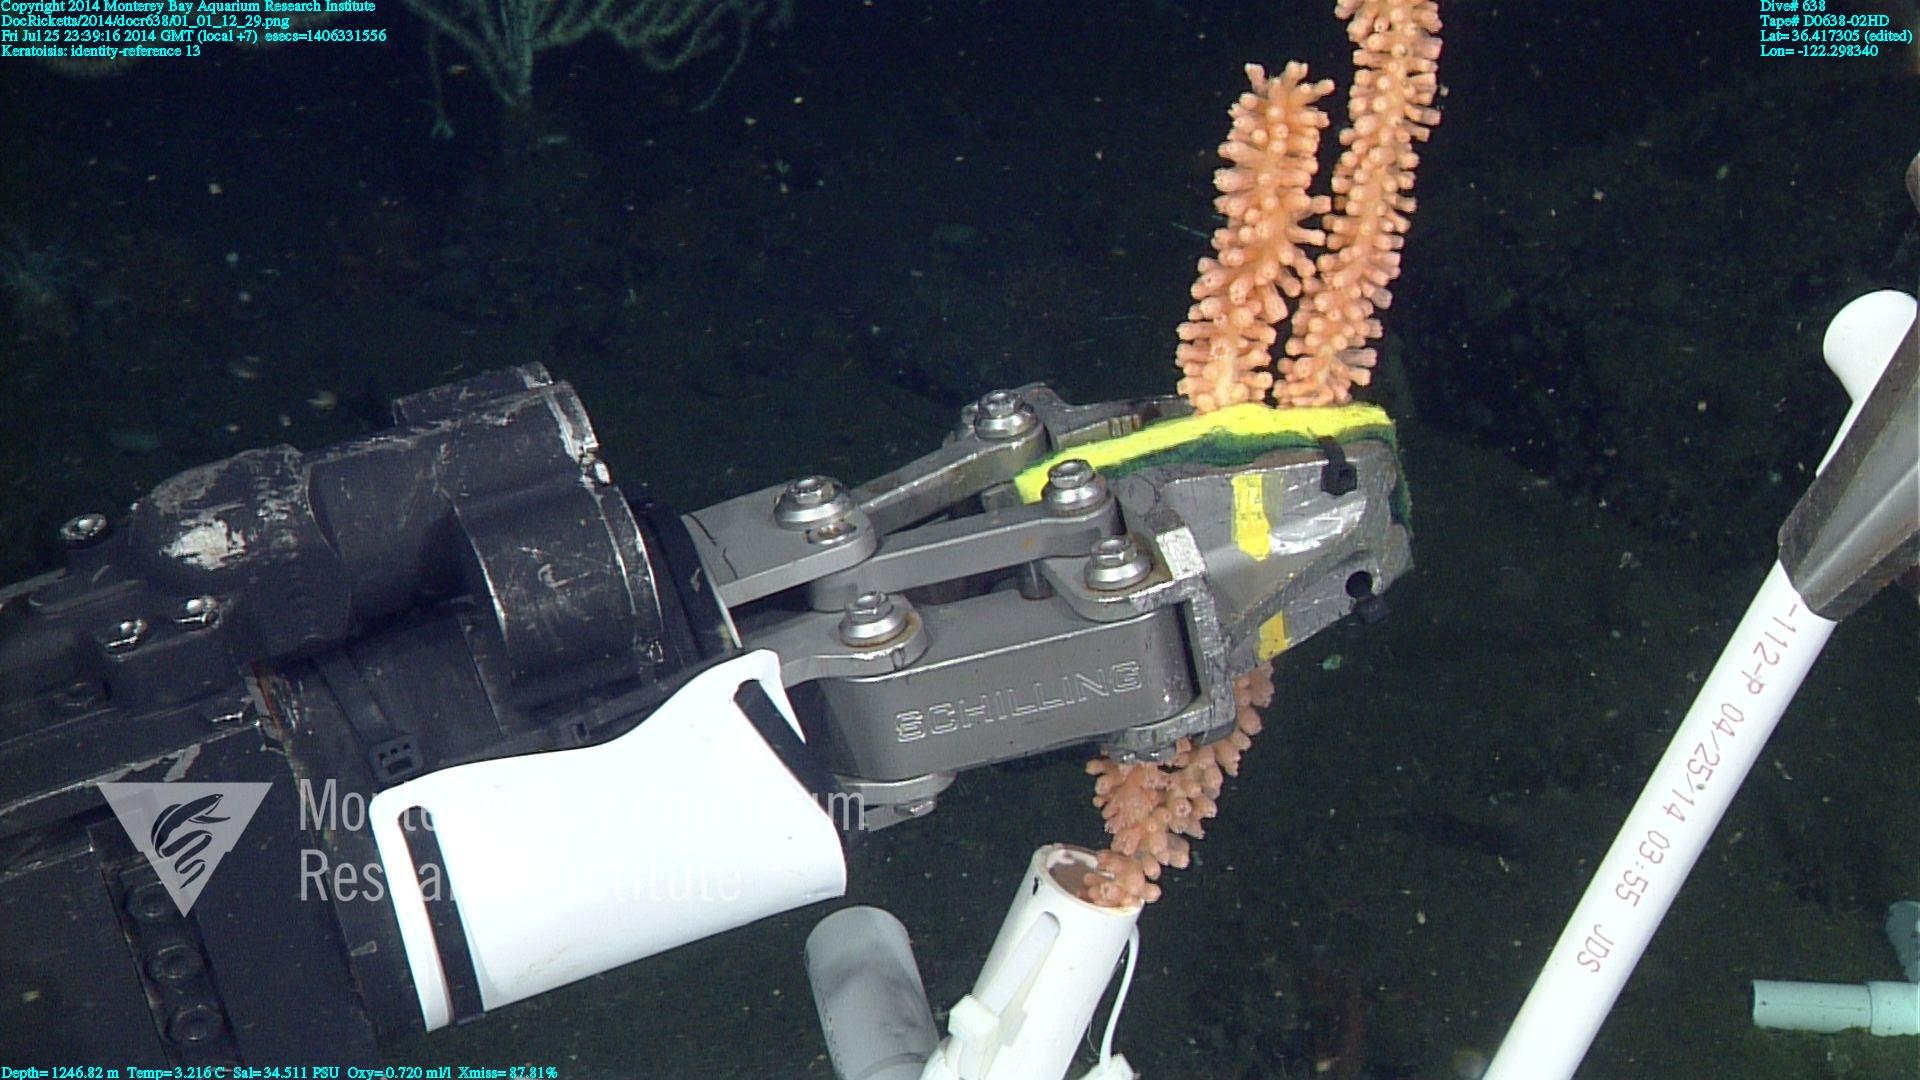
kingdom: Animalia
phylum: Cnidaria
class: Anthozoa
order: Scleralcyonacea
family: Keratoisididae
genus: Keratoisis
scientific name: Keratoisis
